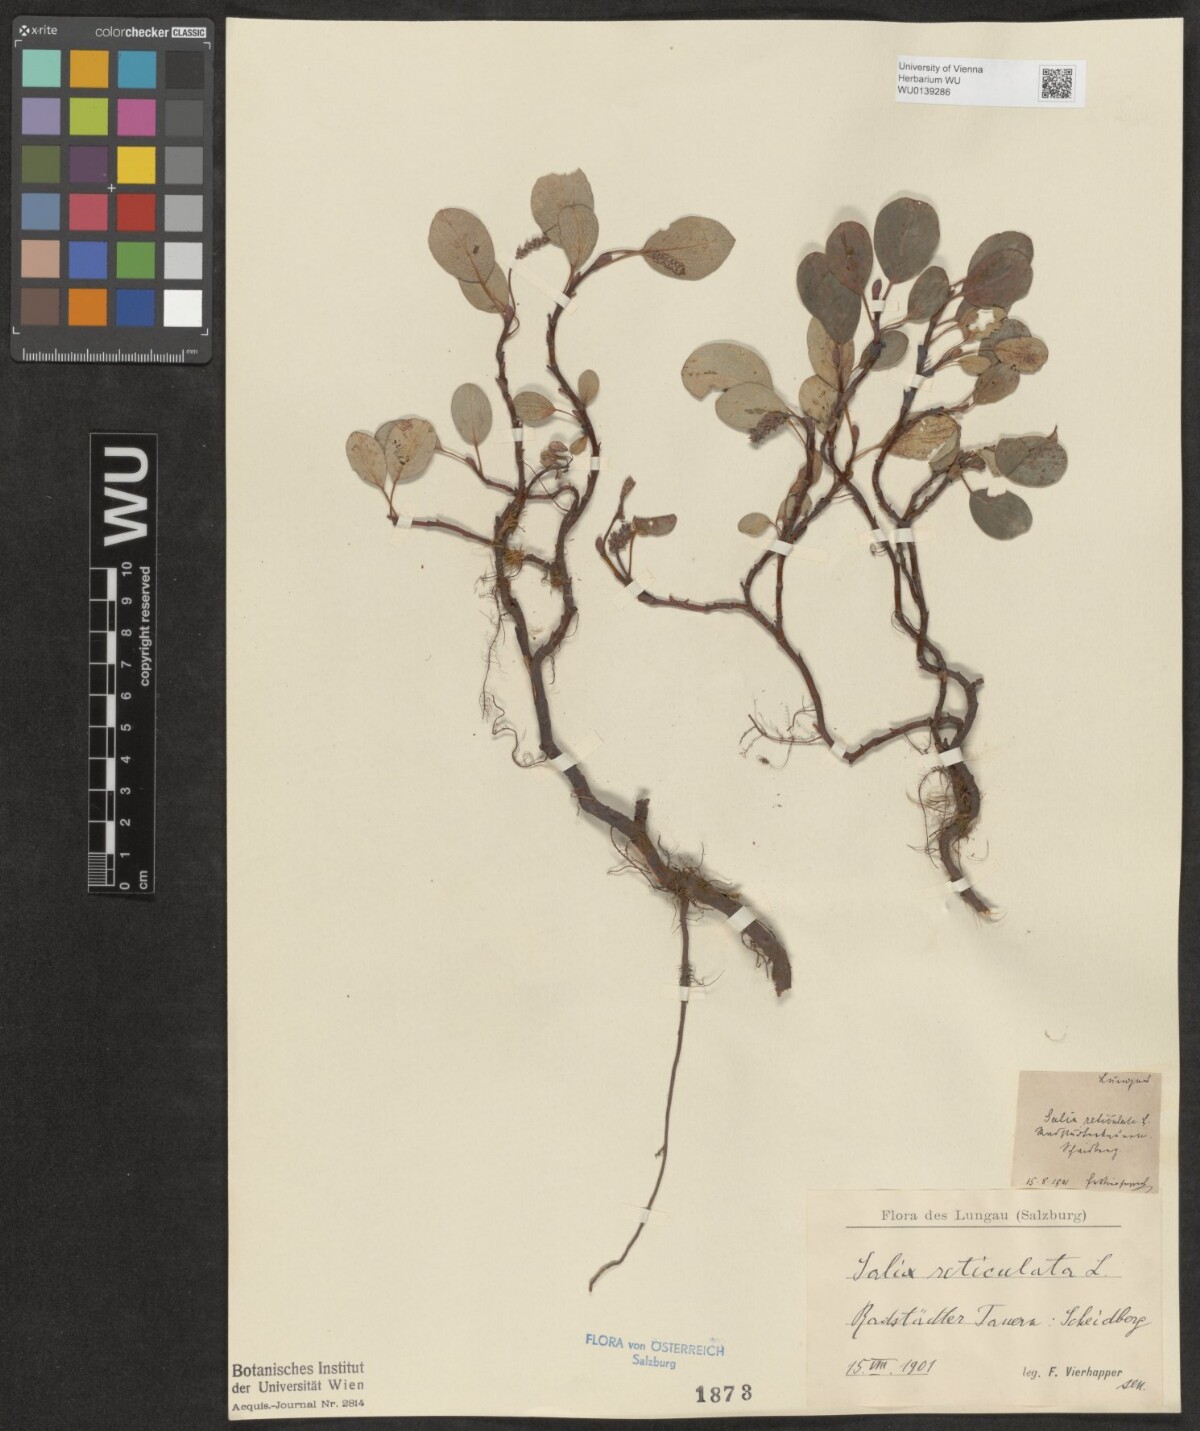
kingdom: Plantae
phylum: Tracheophyta
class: Magnoliopsida
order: Malpighiales
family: Salicaceae
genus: Salix
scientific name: Salix reticulata
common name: Net-leaved willow
